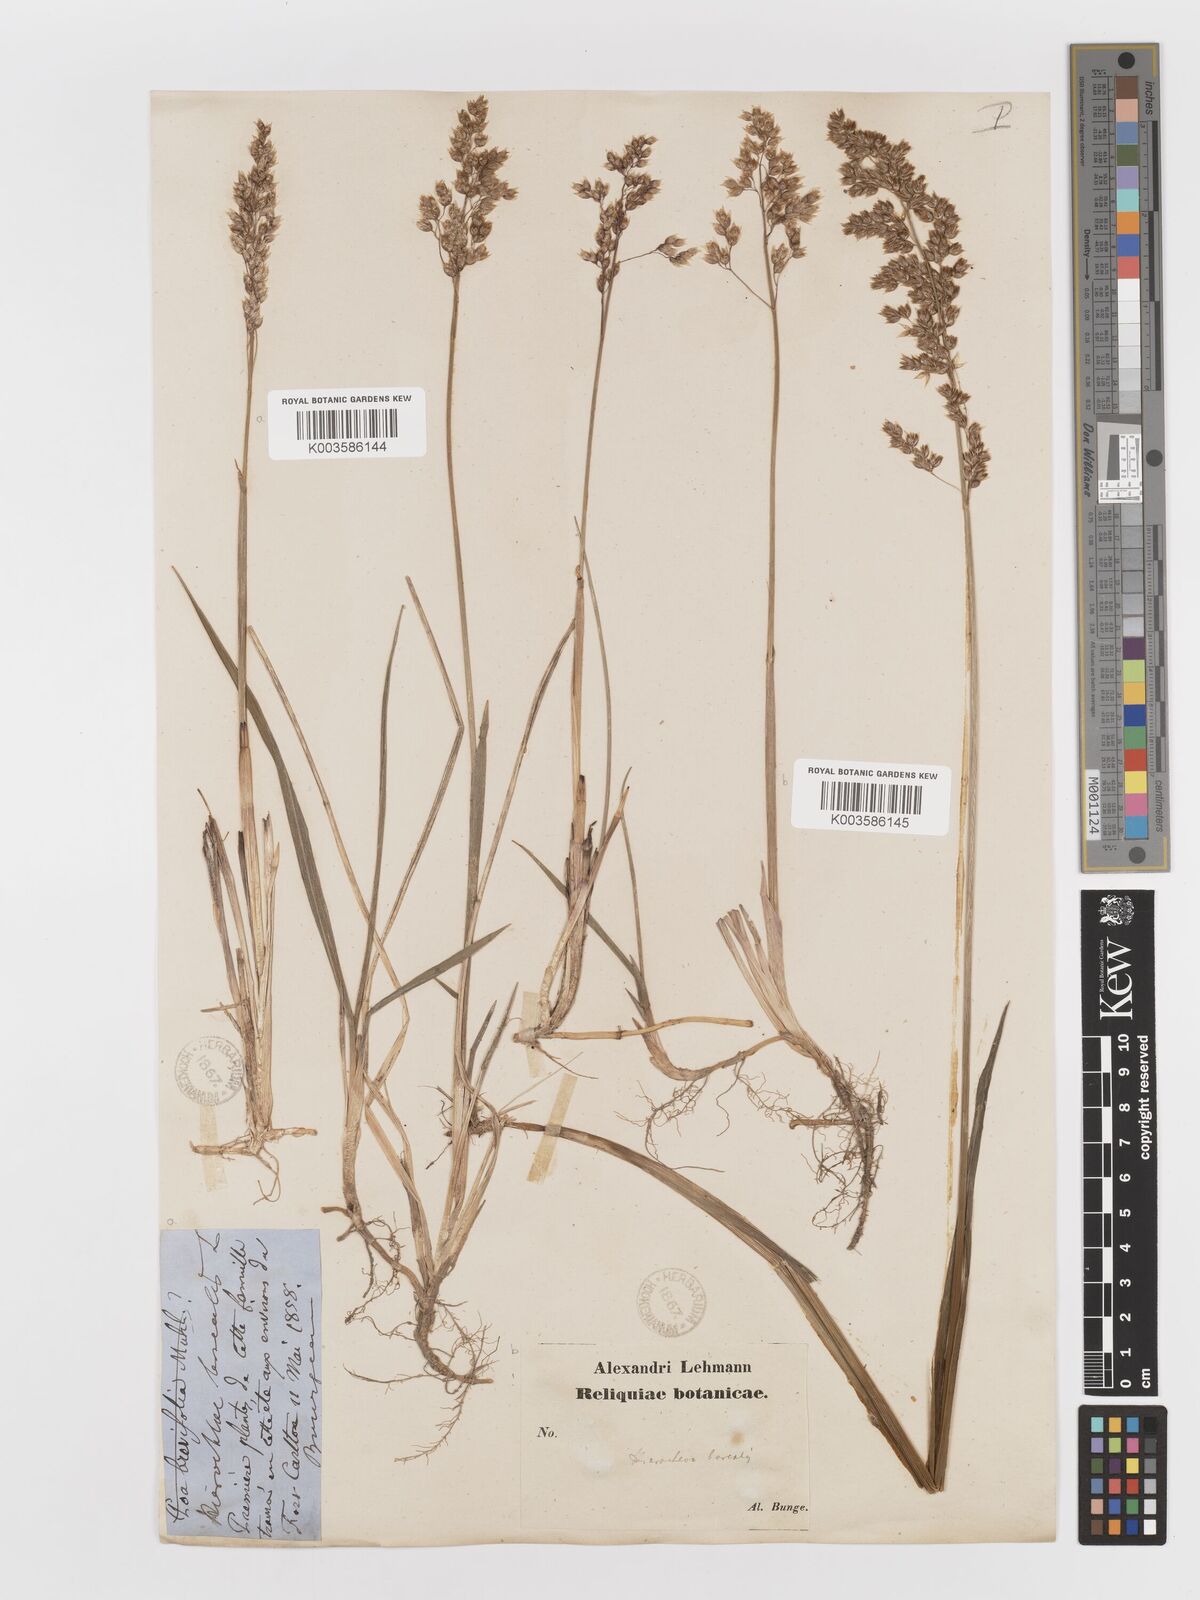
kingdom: Plantae
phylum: Tracheophyta
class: Liliopsida
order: Poales
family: Poaceae
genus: Anthoxanthum
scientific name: Anthoxanthum nitens
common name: Holy grass
